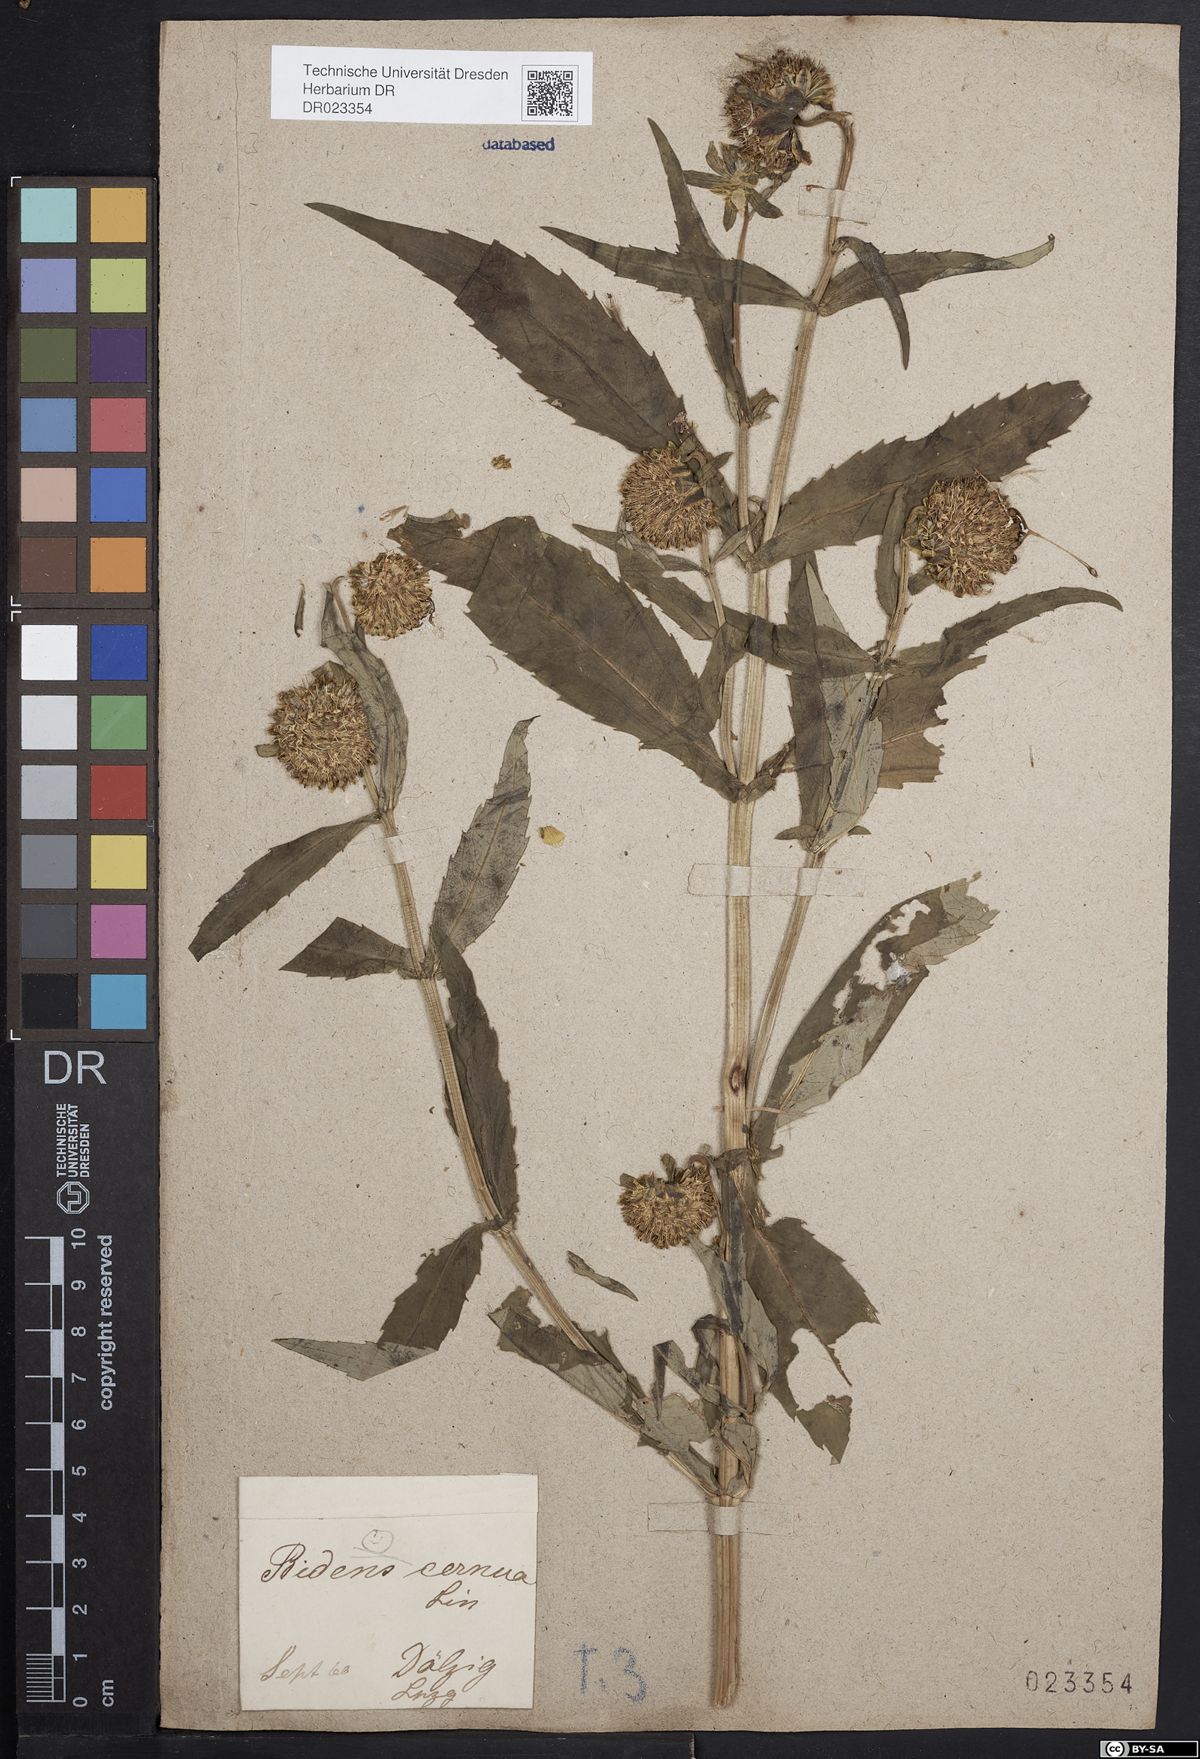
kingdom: Plantae
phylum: Tracheophyta
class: Magnoliopsida
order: Asterales
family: Asteraceae
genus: Bidens
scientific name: Bidens cernua
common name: Nodding bur-marigold
